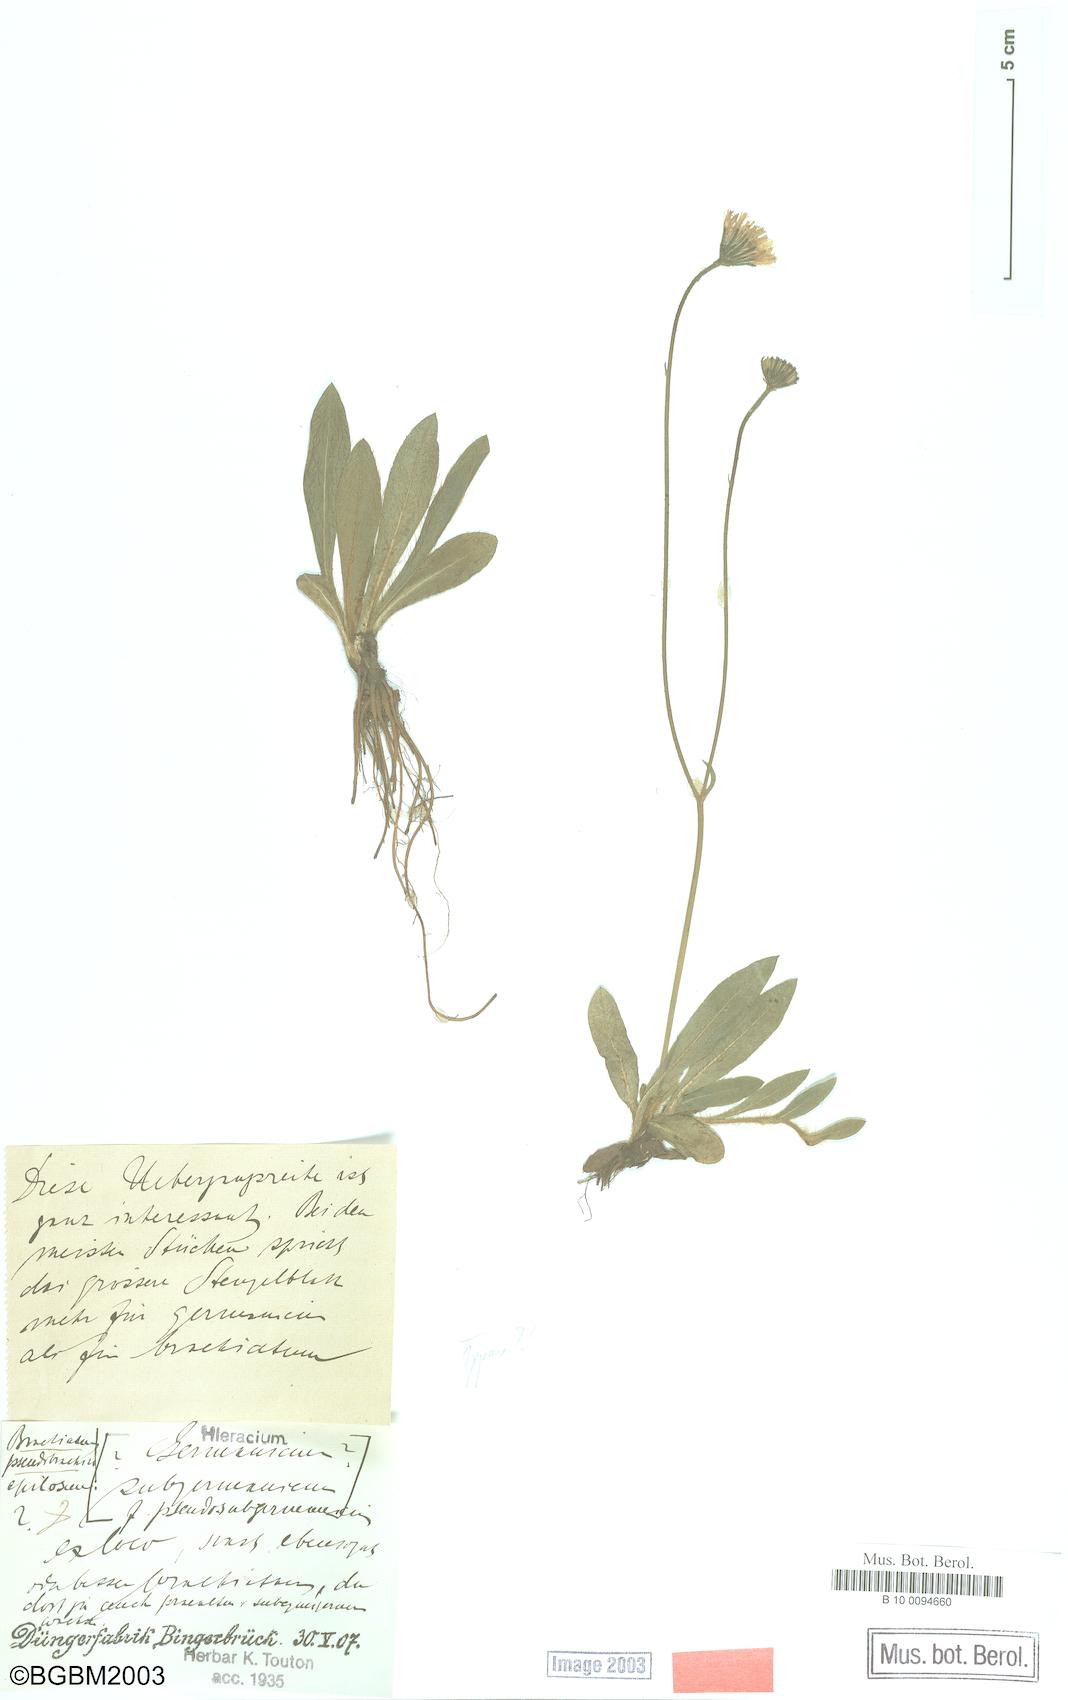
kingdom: Plantae
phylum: Tracheophyta
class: Magnoliopsida
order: Asterales
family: Asteraceae
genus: Pilosella
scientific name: Pilosella pilosellina
